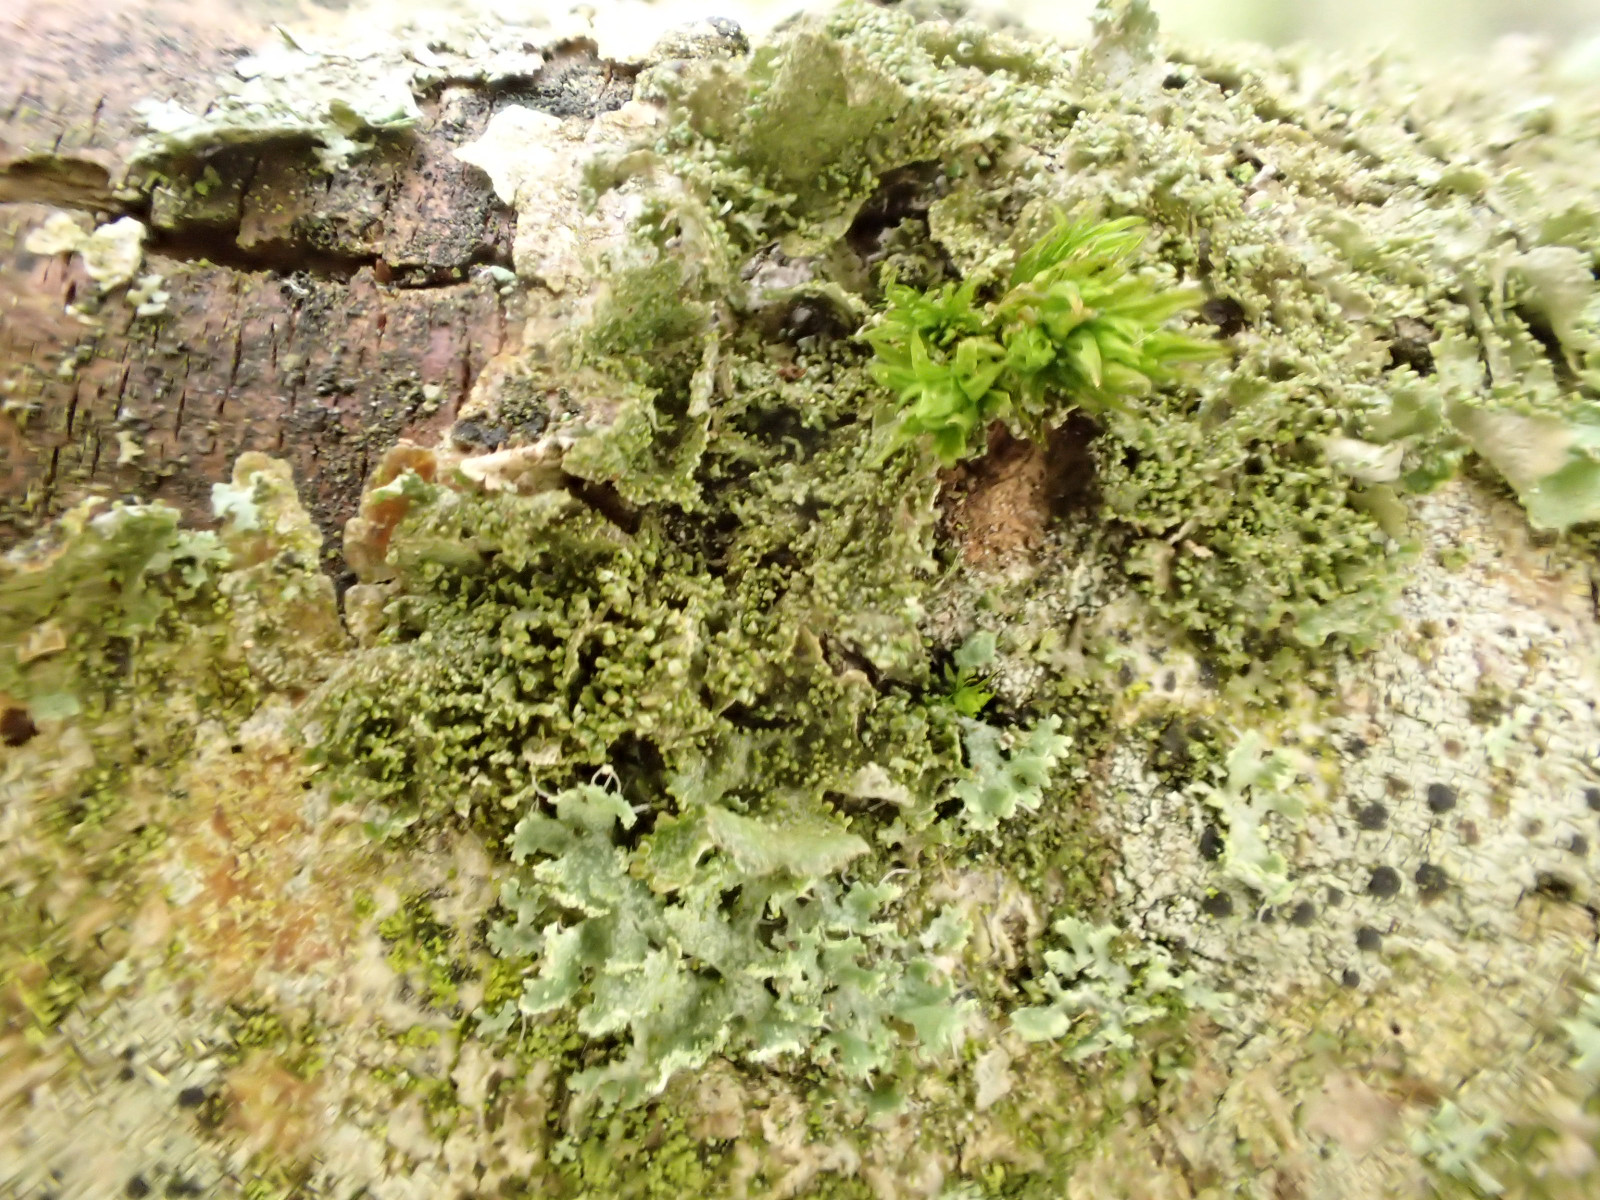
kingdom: Fungi
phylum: Ascomycota
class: Lecanoromycetes
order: Lecanorales
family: Parmeliaceae
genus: Melanohalea
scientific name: Melanohalea exasperatula
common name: kølle-skållav
